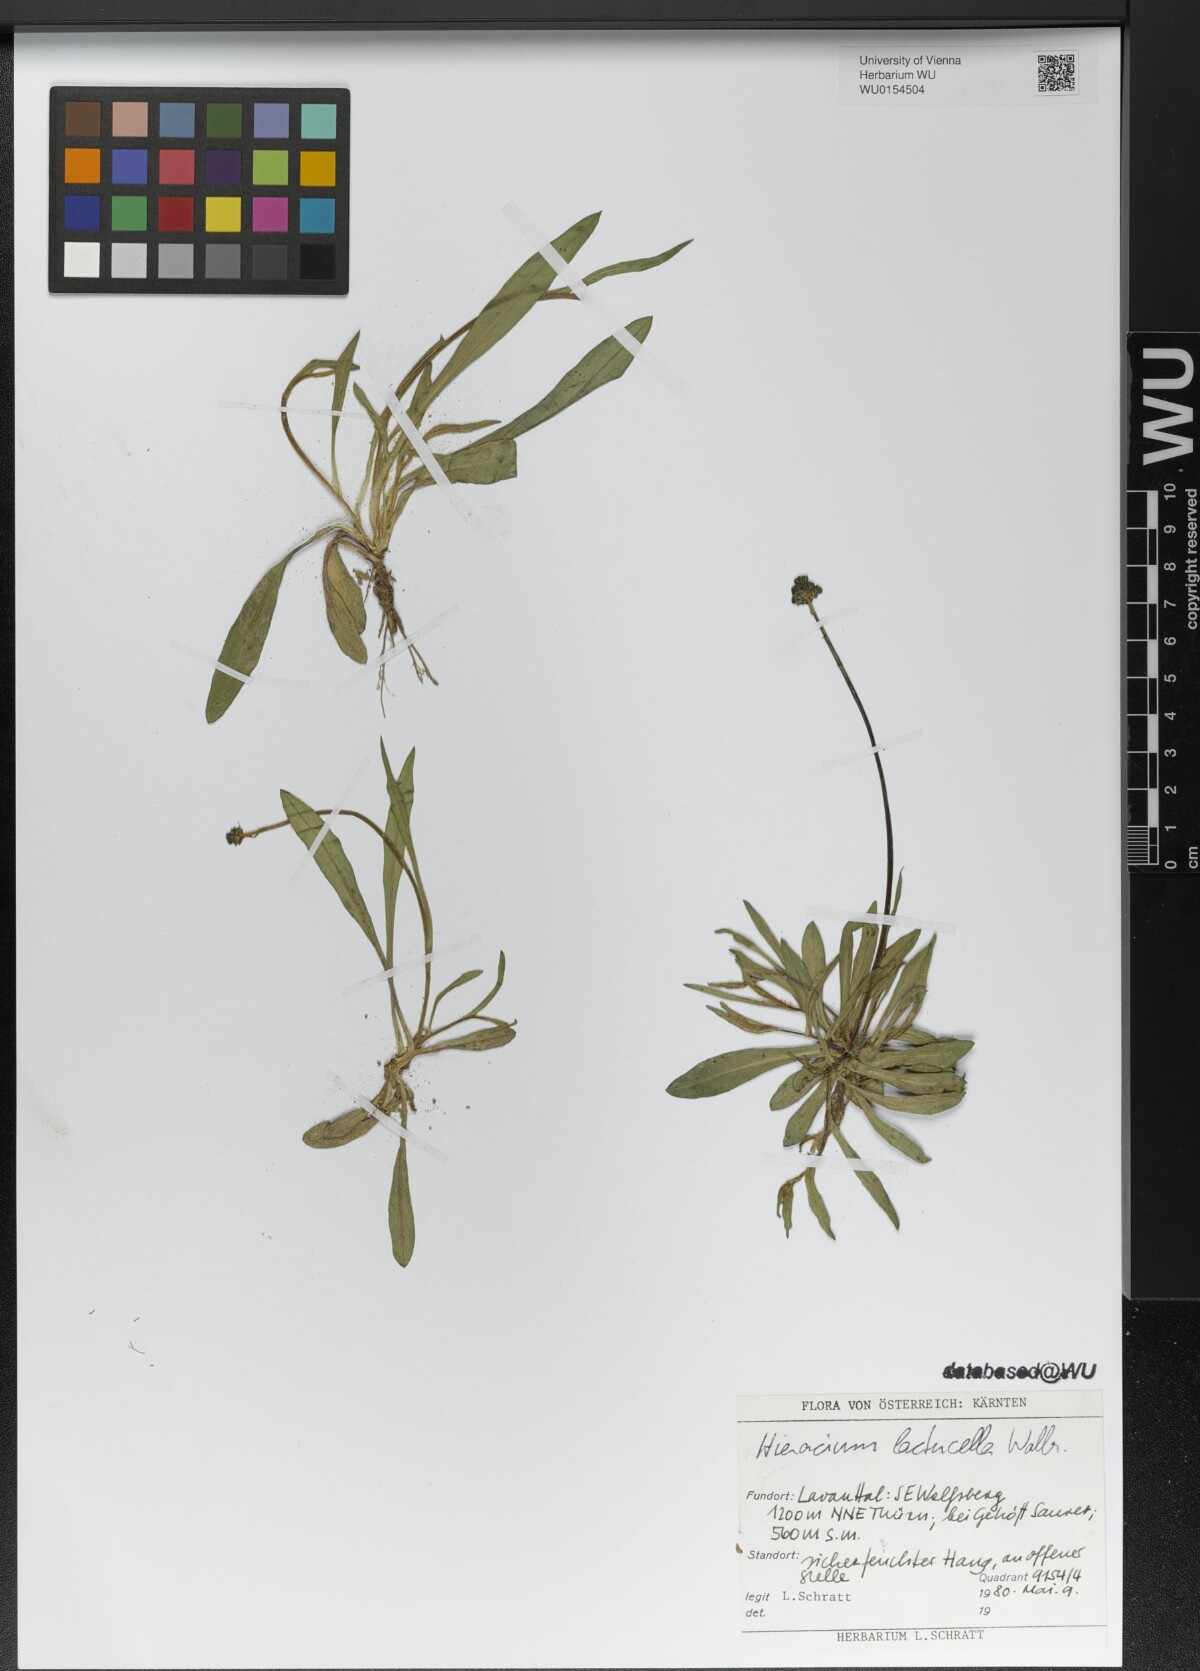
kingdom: Plantae
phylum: Tracheophyta
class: Magnoliopsida
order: Asterales
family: Asteraceae
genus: Pilosella
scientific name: Pilosella lactucella
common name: Glaucous fox-and-cubs
